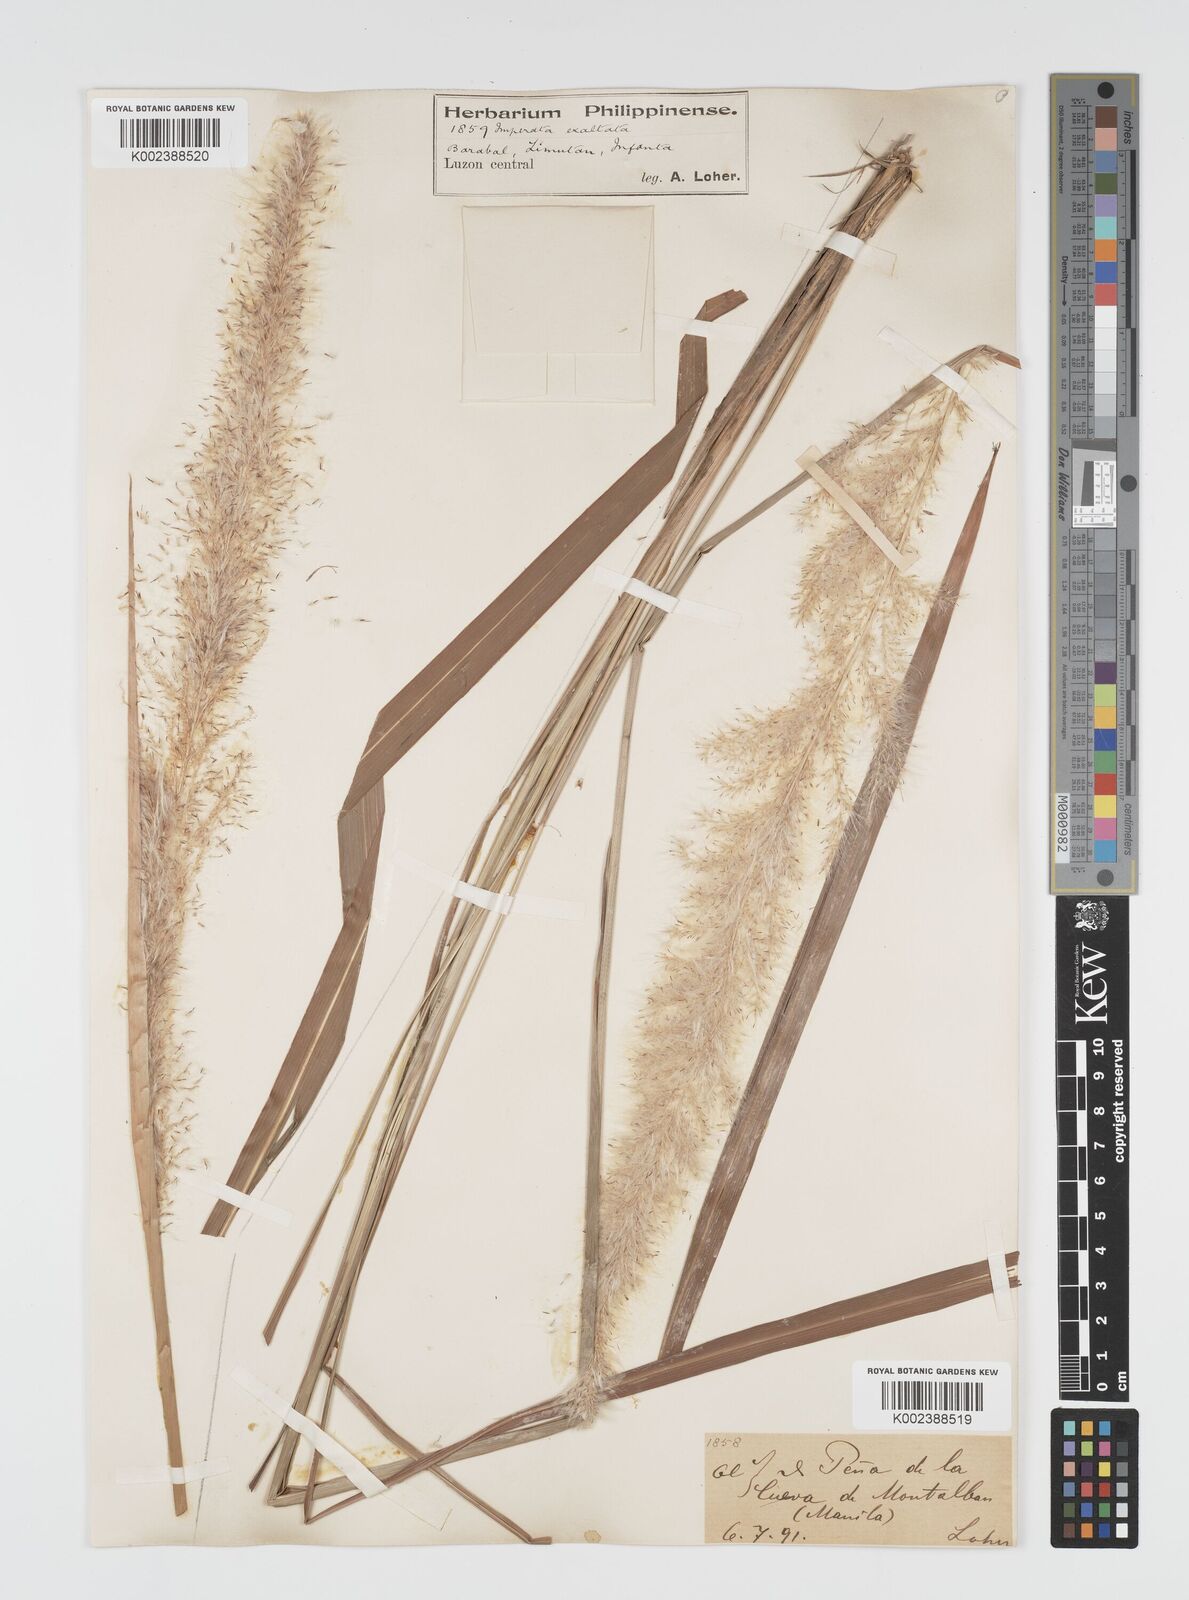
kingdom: Plantae
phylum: Tracheophyta
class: Liliopsida
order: Poales
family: Poaceae
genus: Imperata
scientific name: Imperata conferta
